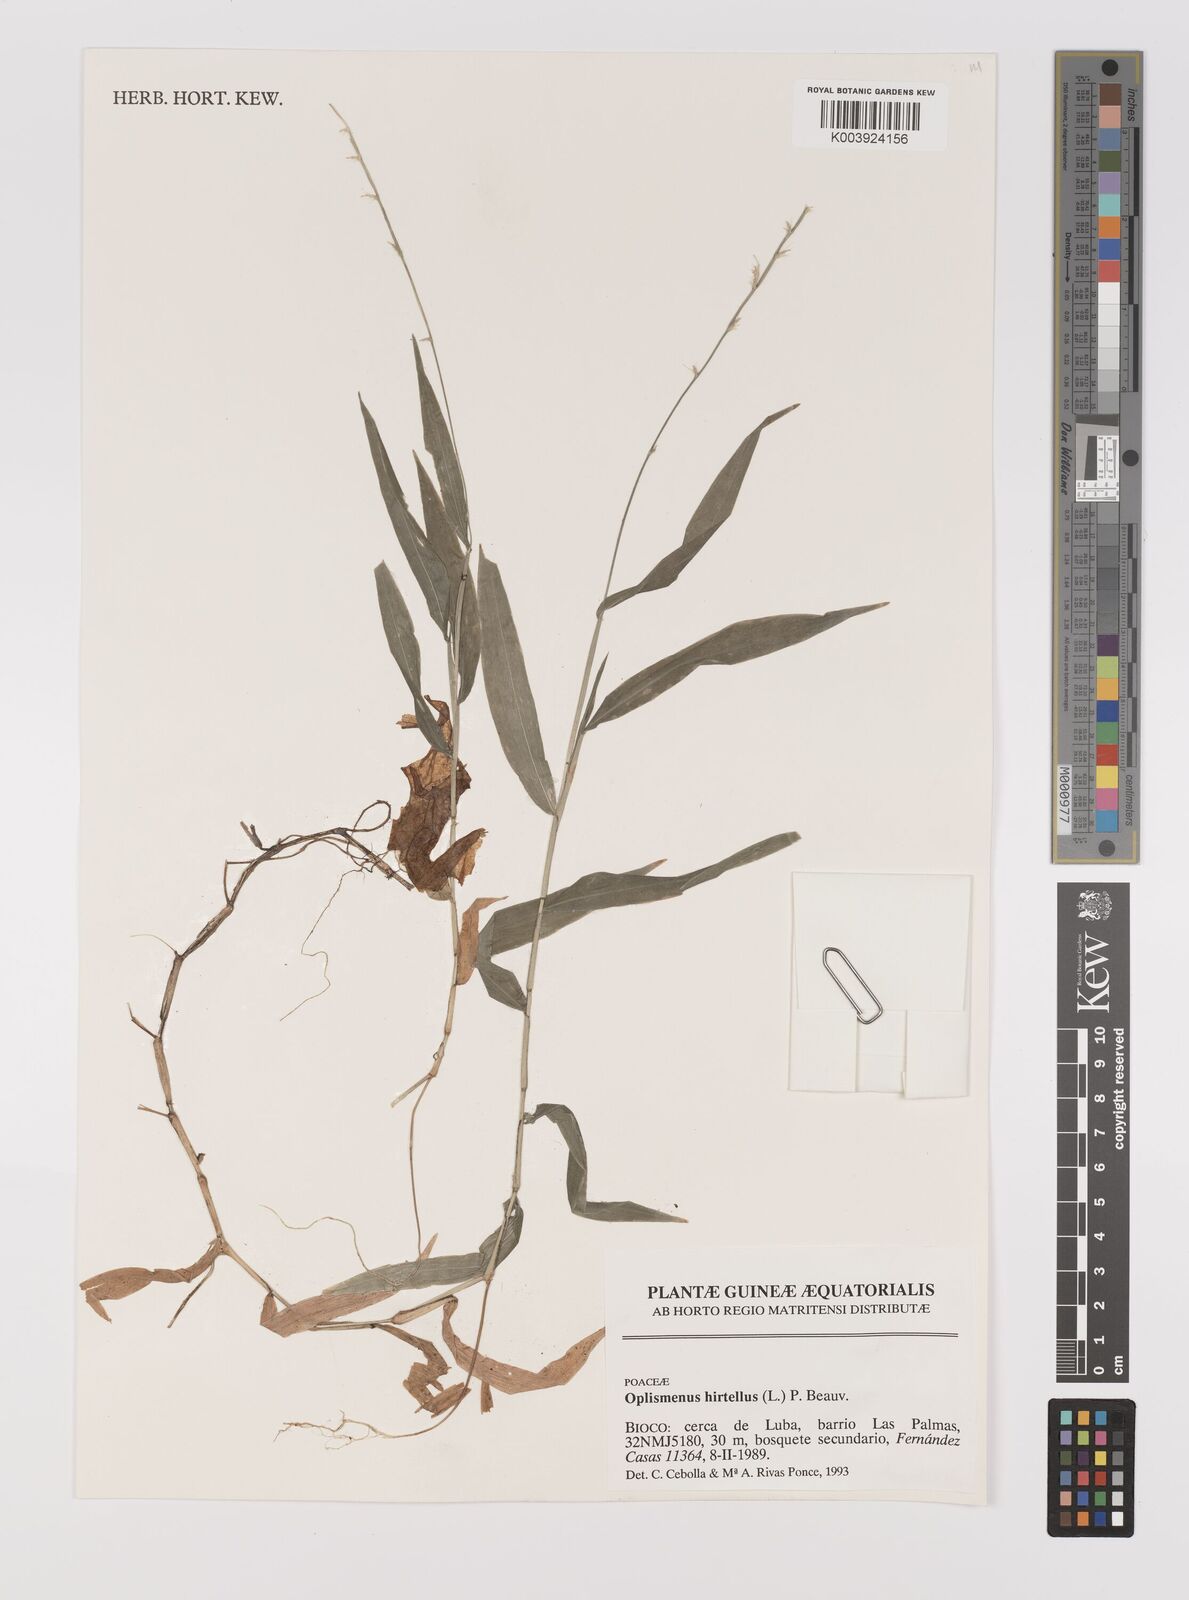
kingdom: Plantae
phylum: Tracheophyta
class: Liliopsida
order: Poales
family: Poaceae
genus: Oplismenus
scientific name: Oplismenus hirtellus
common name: Basketgrass
